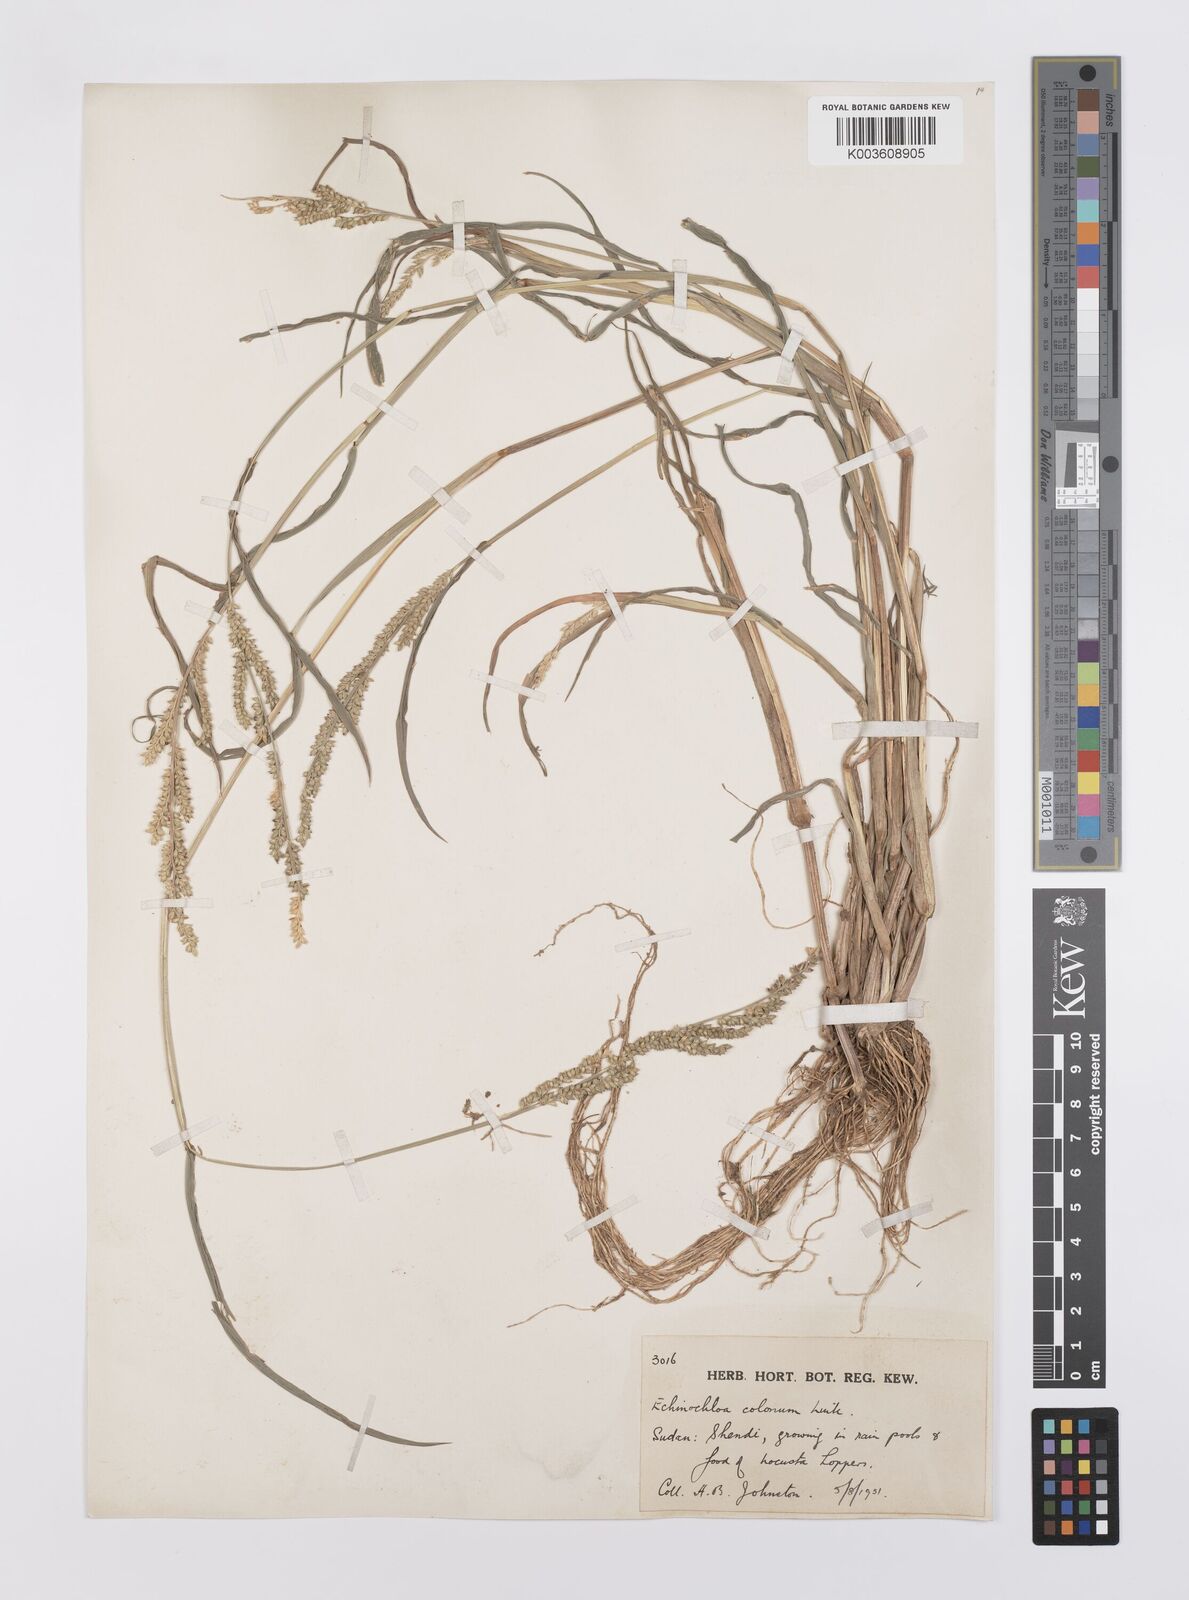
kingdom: Plantae
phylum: Tracheophyta
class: Liliopsida
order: Poales
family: Poaceae
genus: Echinochloa
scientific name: Echinochloa colonum
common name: Jungle rice
